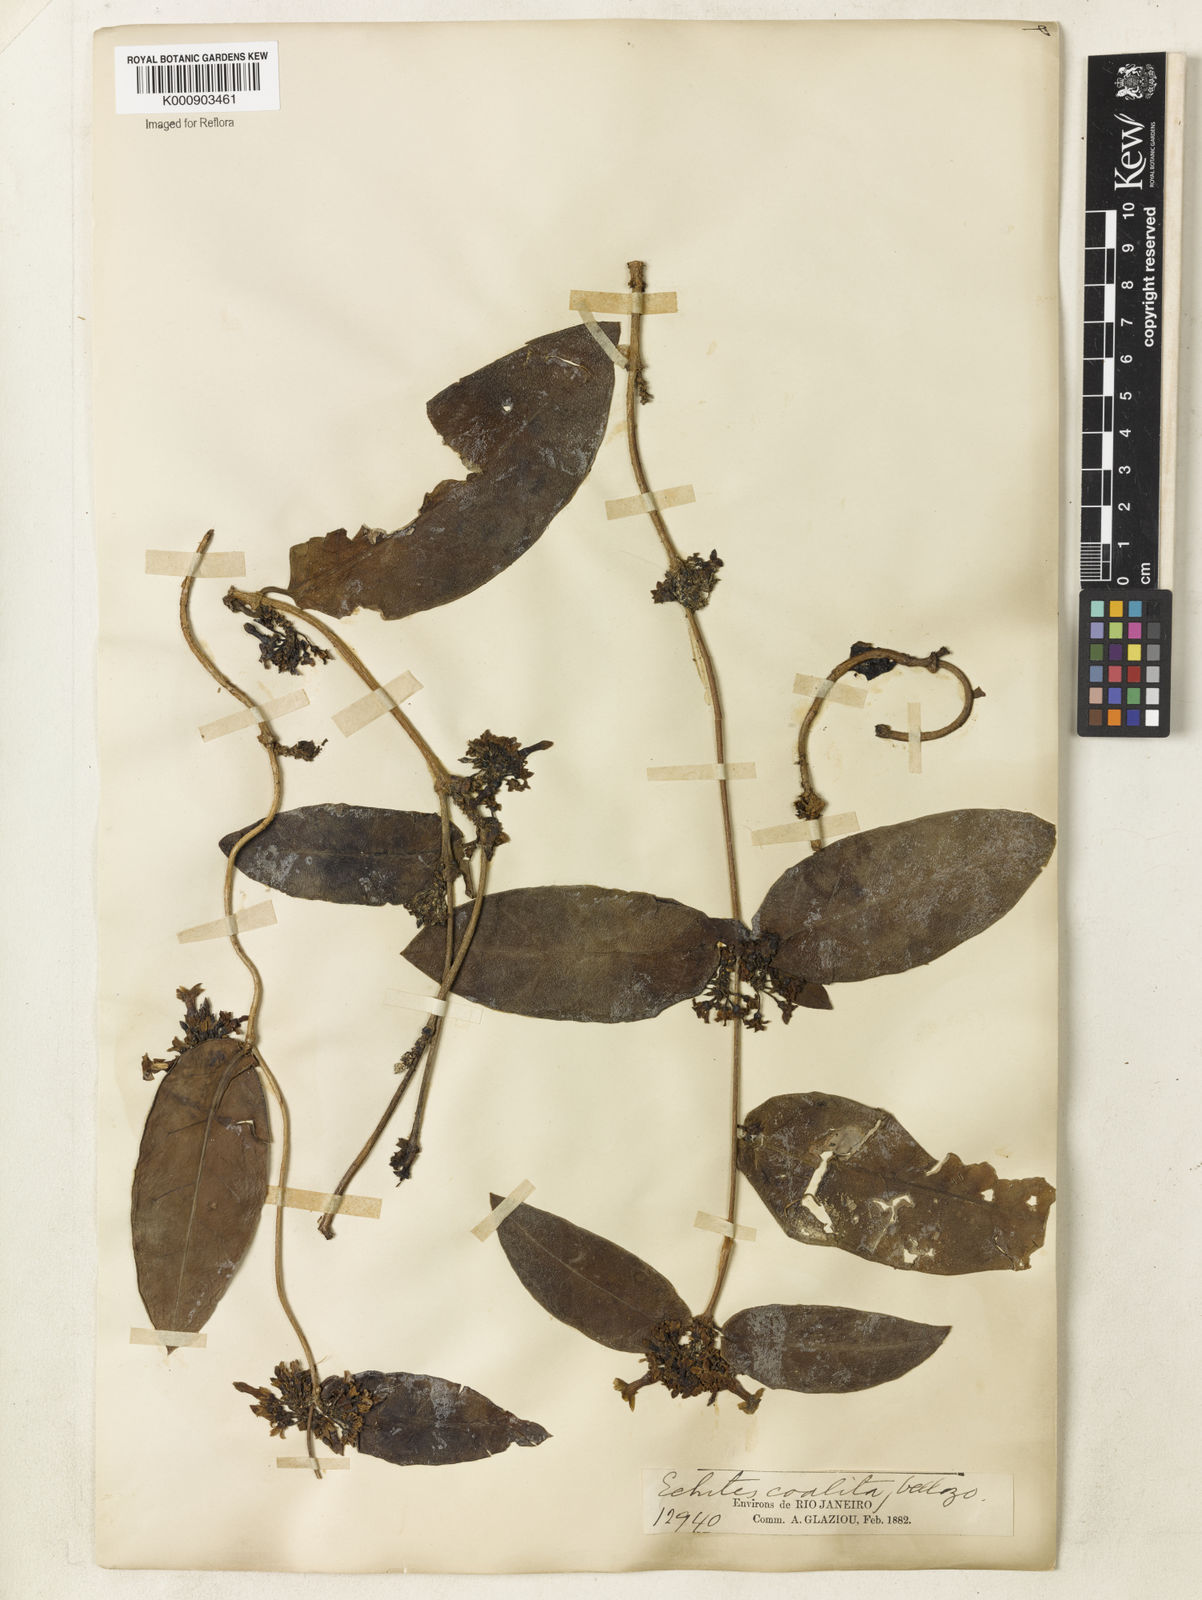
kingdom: Plantae
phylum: Tracheophyta
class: Magnoliopsida
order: Gentianales
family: Apocynaceae
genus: Prestonia
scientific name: Prestonia coalita
